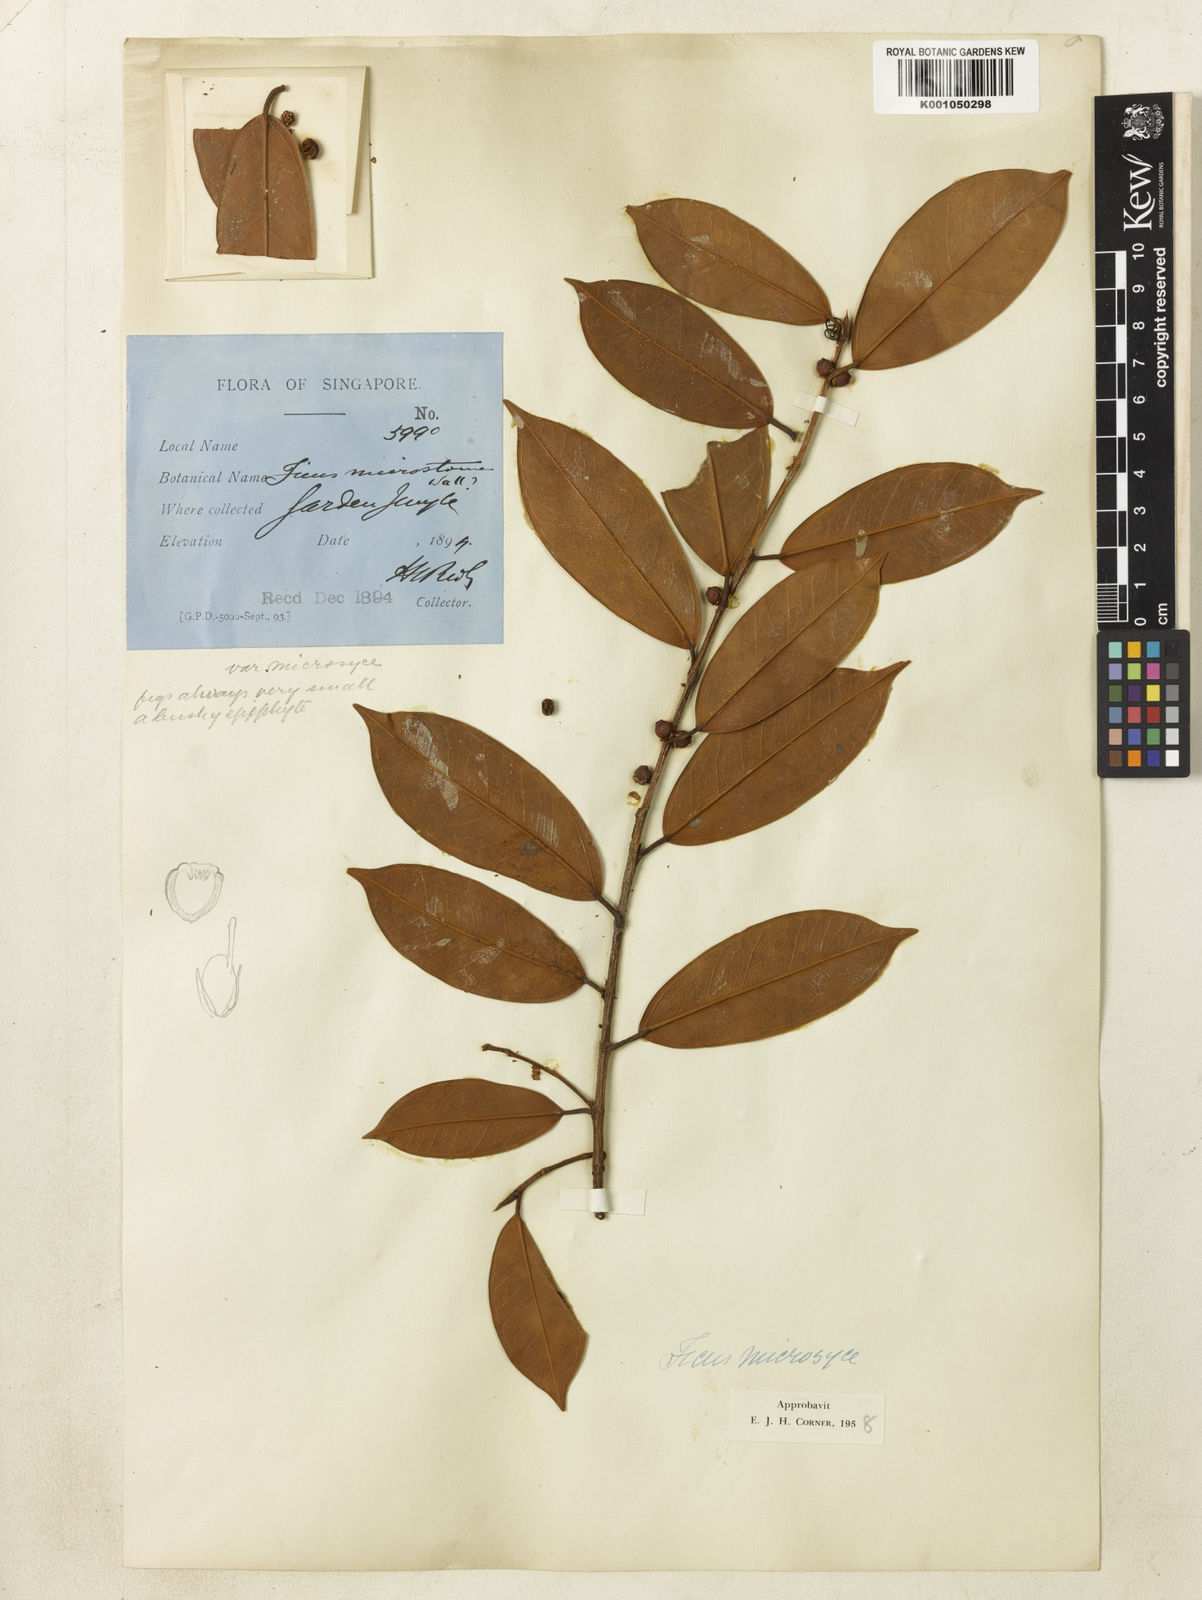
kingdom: Plantae
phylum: Tracheophyta
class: Magnoliopsida
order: Rosales
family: Moraceae
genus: Ficus
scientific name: Ficus microsyce
